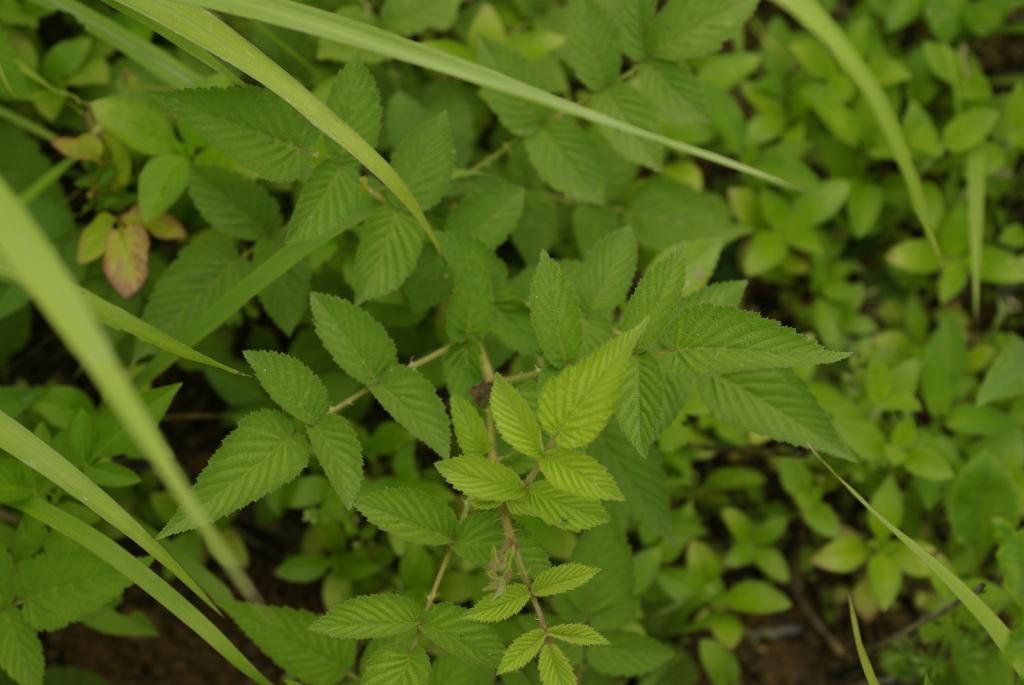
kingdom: Plantae
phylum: Tracheophyta
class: Magnoliopsida
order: Rosales
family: Rosaceae
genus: Rubus
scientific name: Rubus croceacanthus
